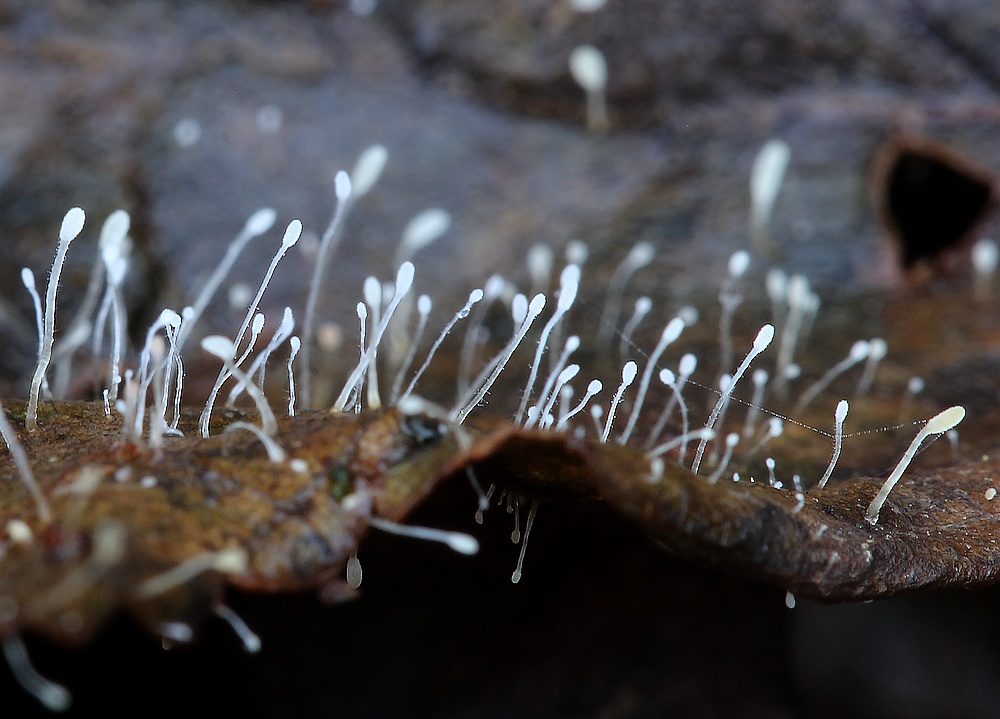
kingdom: Fungi
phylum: Basidiomycota
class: Agaricomycetes
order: Agaricales
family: Typhulaceae
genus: Typhula
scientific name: Typhula setipes
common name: liden trådkølle
